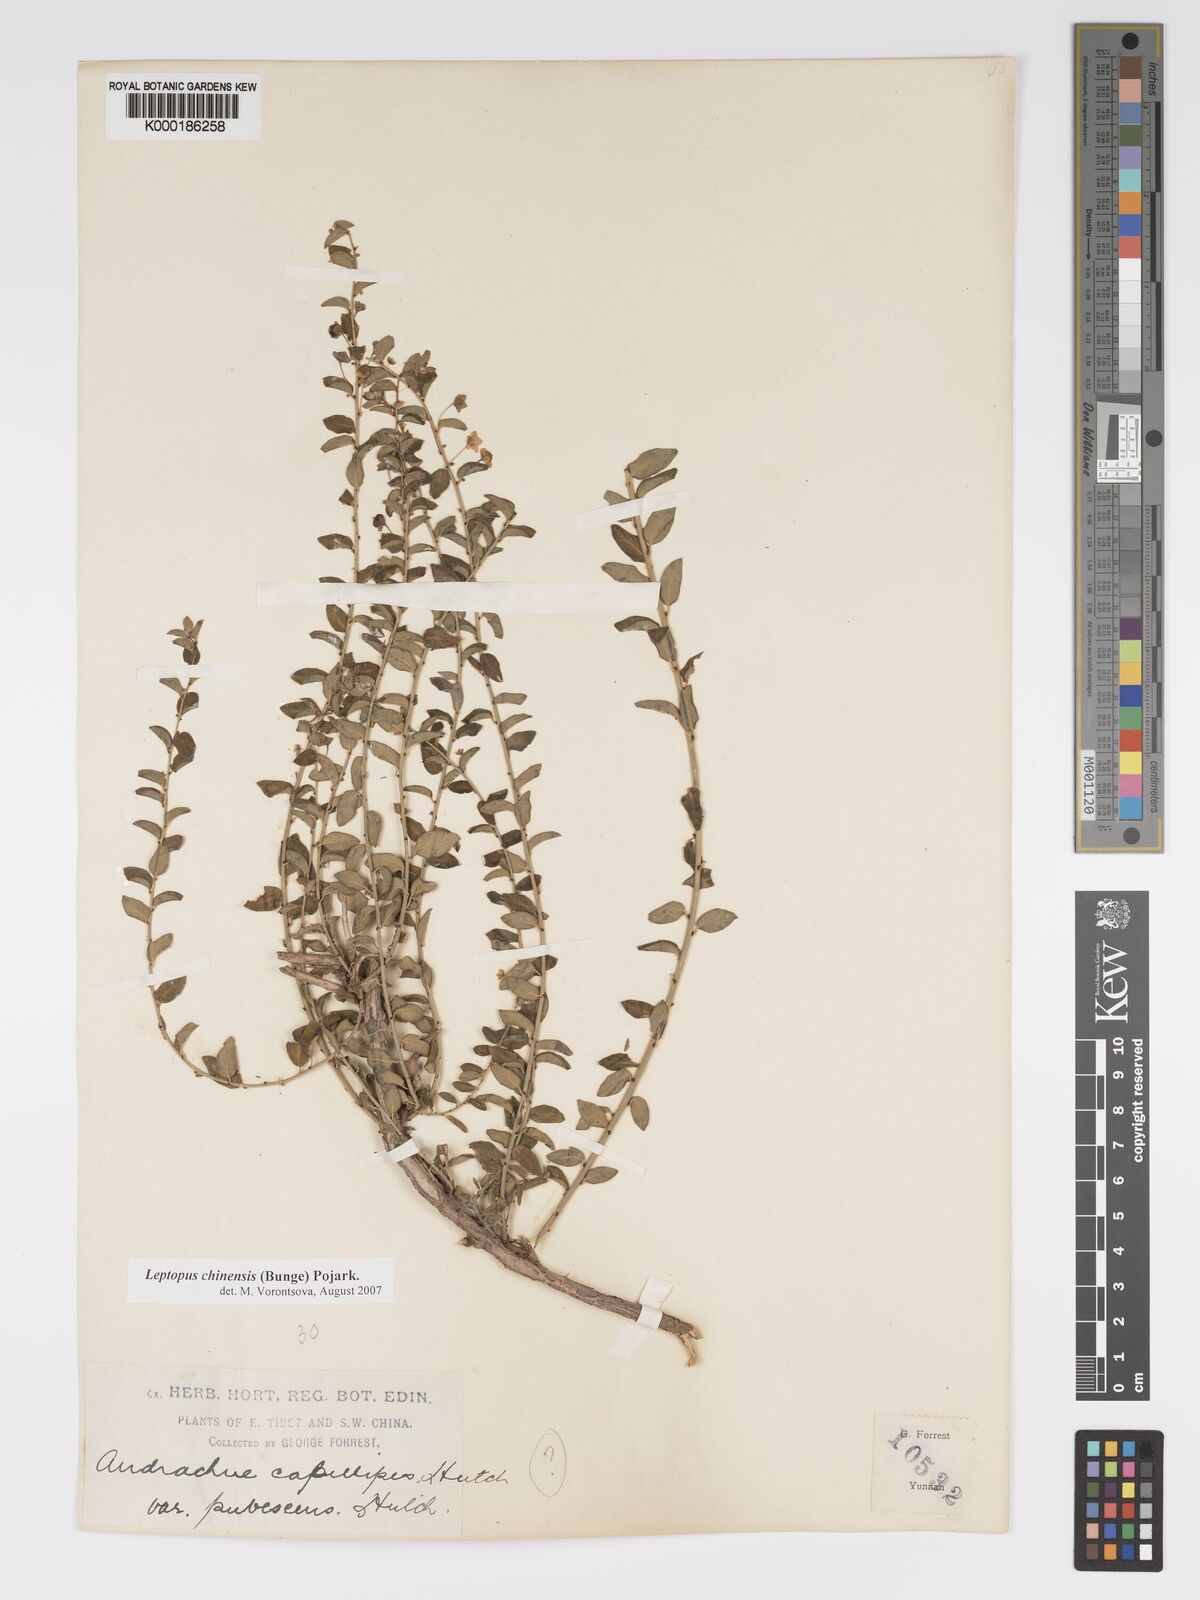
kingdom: Plantae
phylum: Tracheophyta
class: Magnoliopsida
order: Malpighiales
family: Phyllanthaceae
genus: Leptopus
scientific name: Leptopus chinensis
